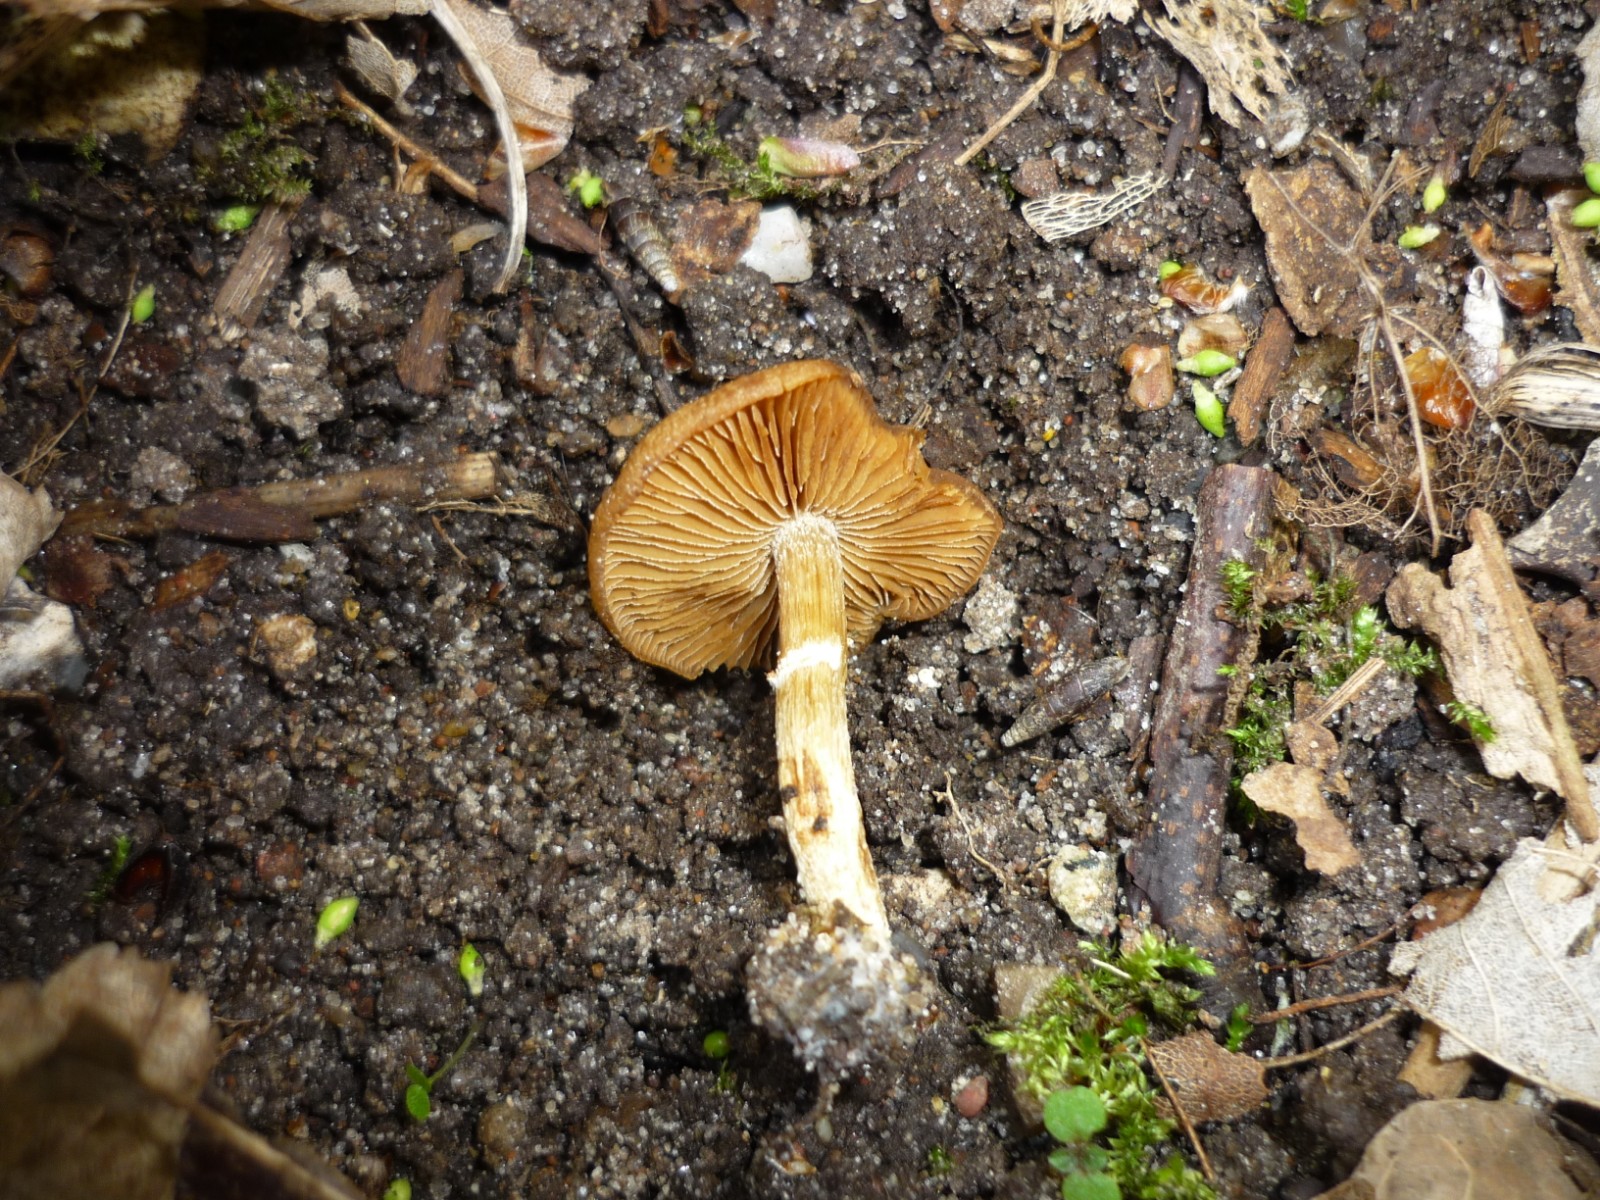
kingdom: Fungi
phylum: Basidiomycota
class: Agaricomycetes
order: Agaricales
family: Bolbitiaceae
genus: Conocybe
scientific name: Conocybe aporos
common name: tidlig dansehat
